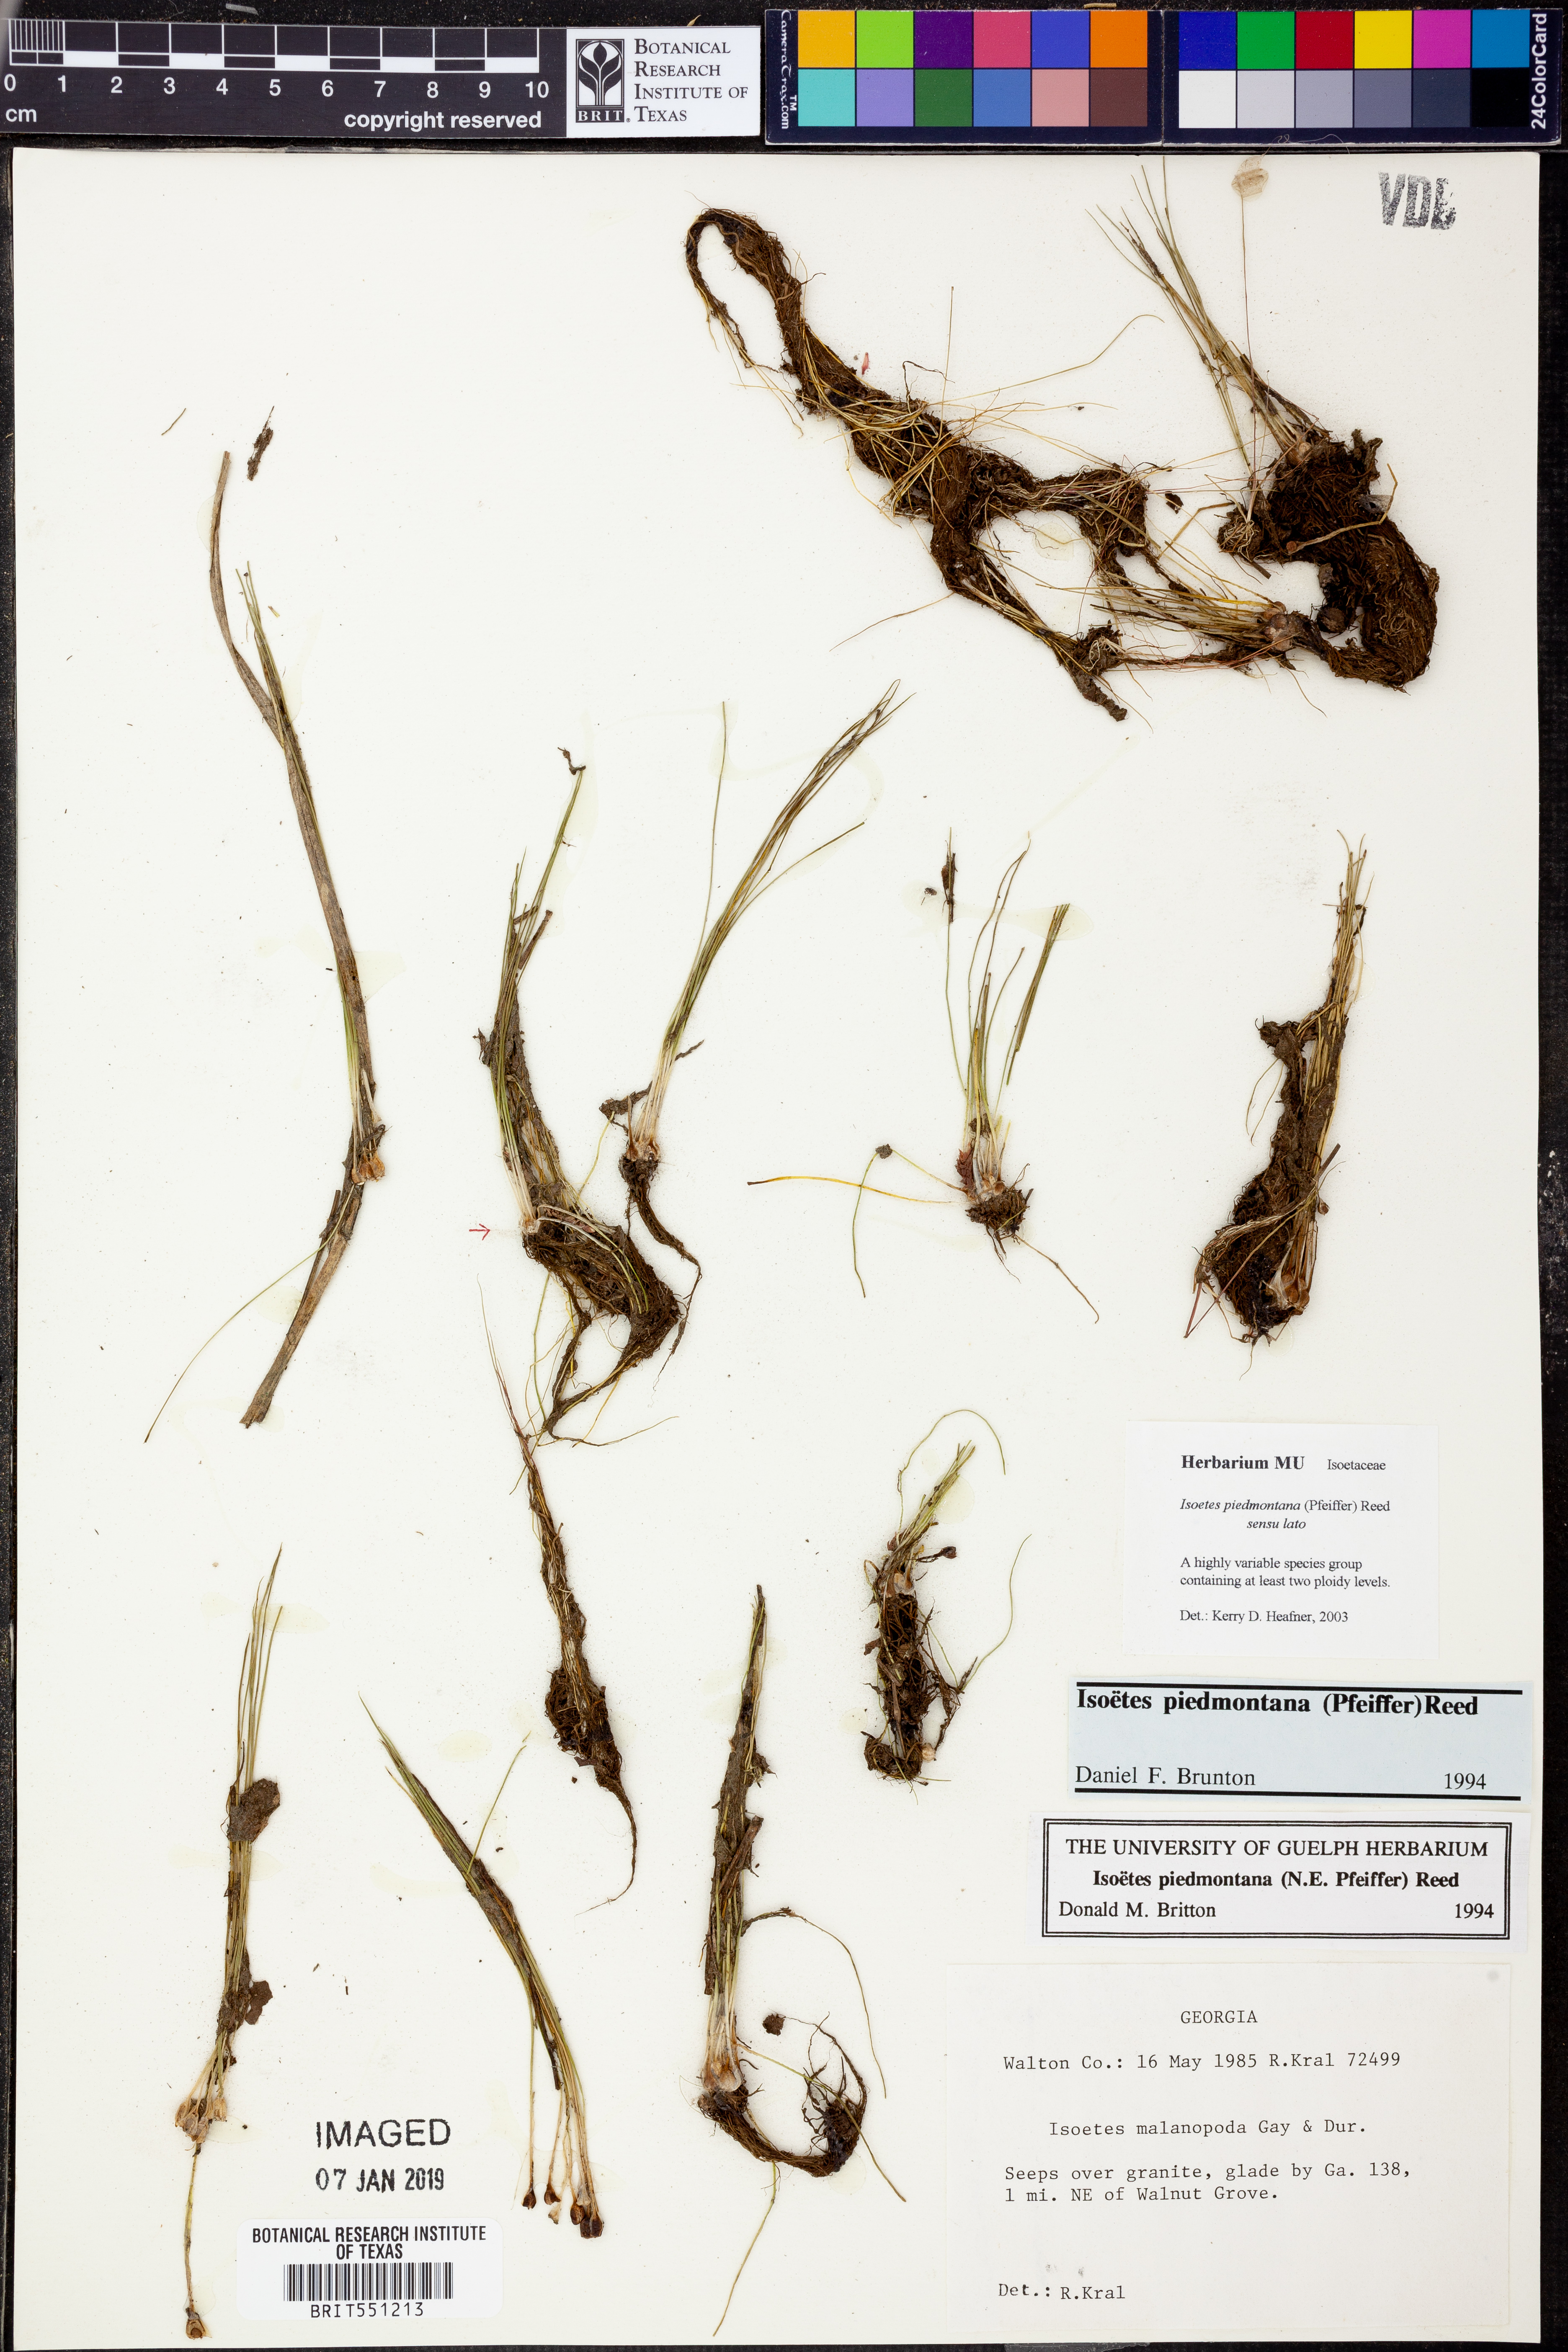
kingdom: Plantae
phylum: Tracheophyta
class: Lycopodiopsida
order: Isoetales
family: Isoetaceae
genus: Isoetes
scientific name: Isoetes virginica
